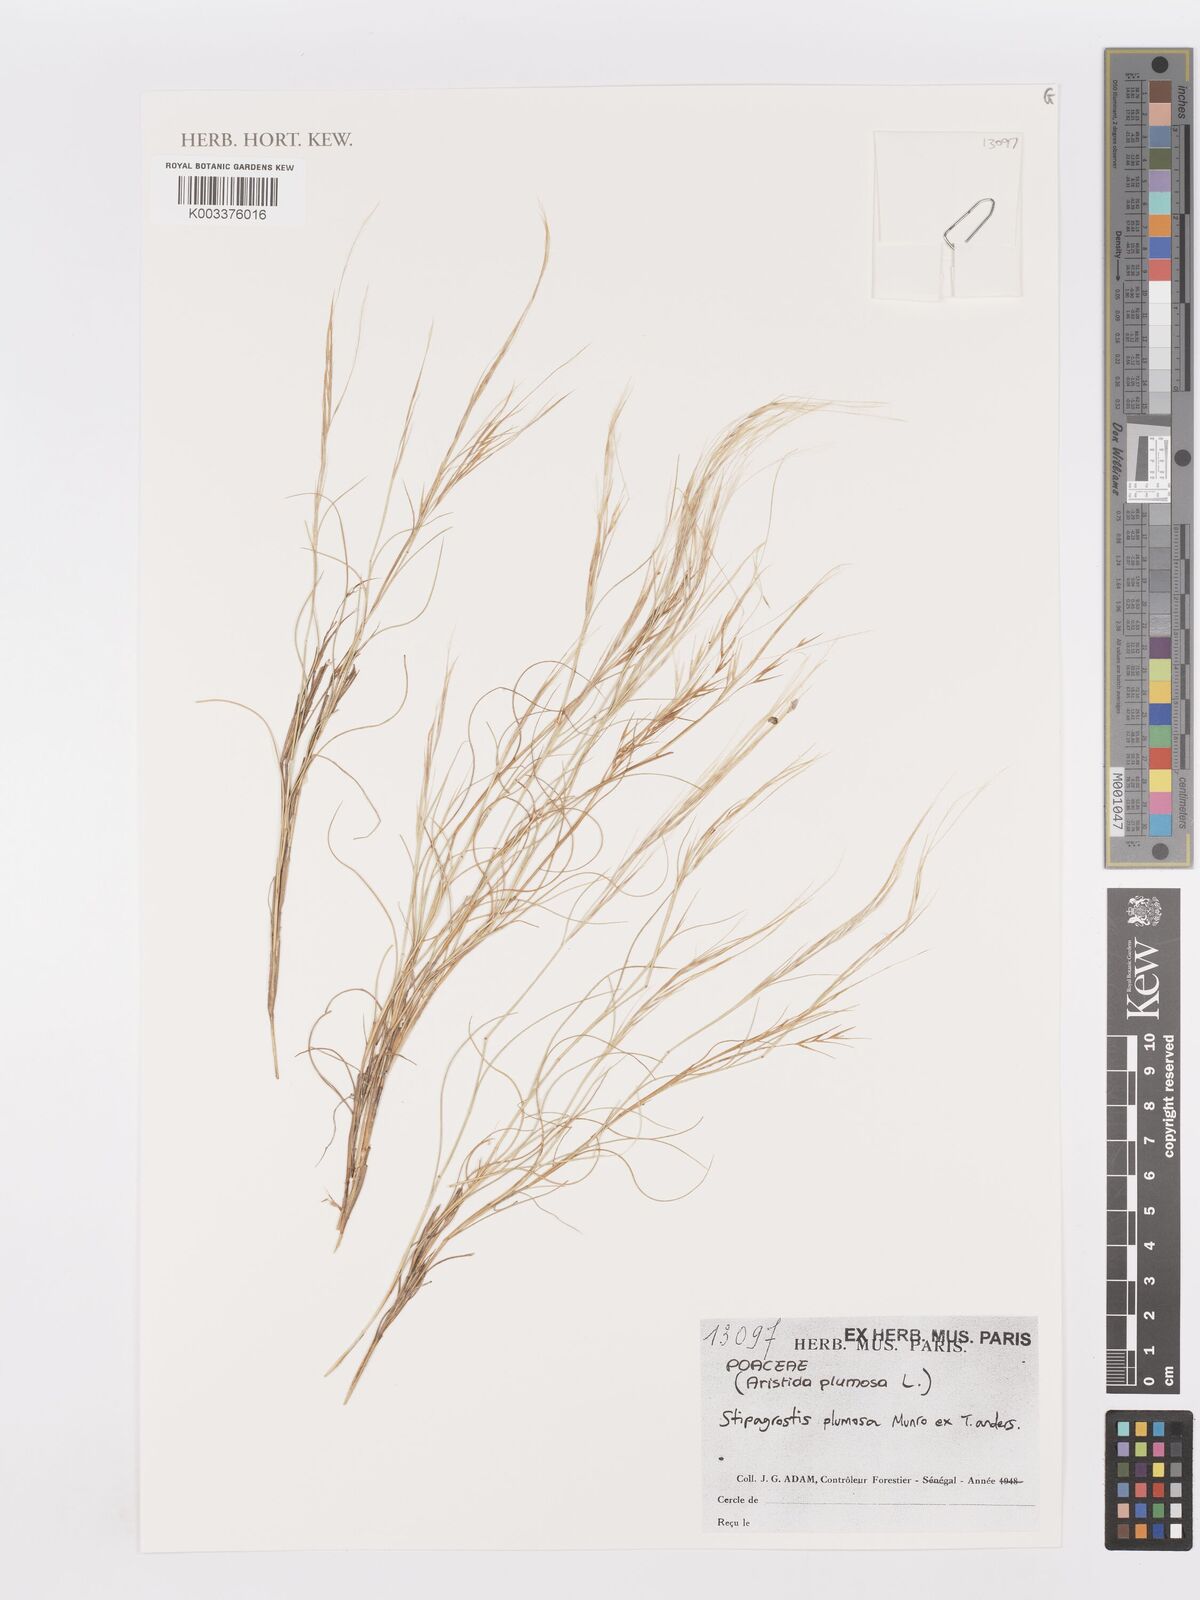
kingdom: Plantae
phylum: Tracheophyta
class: Liliopsida
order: Poales
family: Poaceae
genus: Aristida
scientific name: Aristida mutabilis
